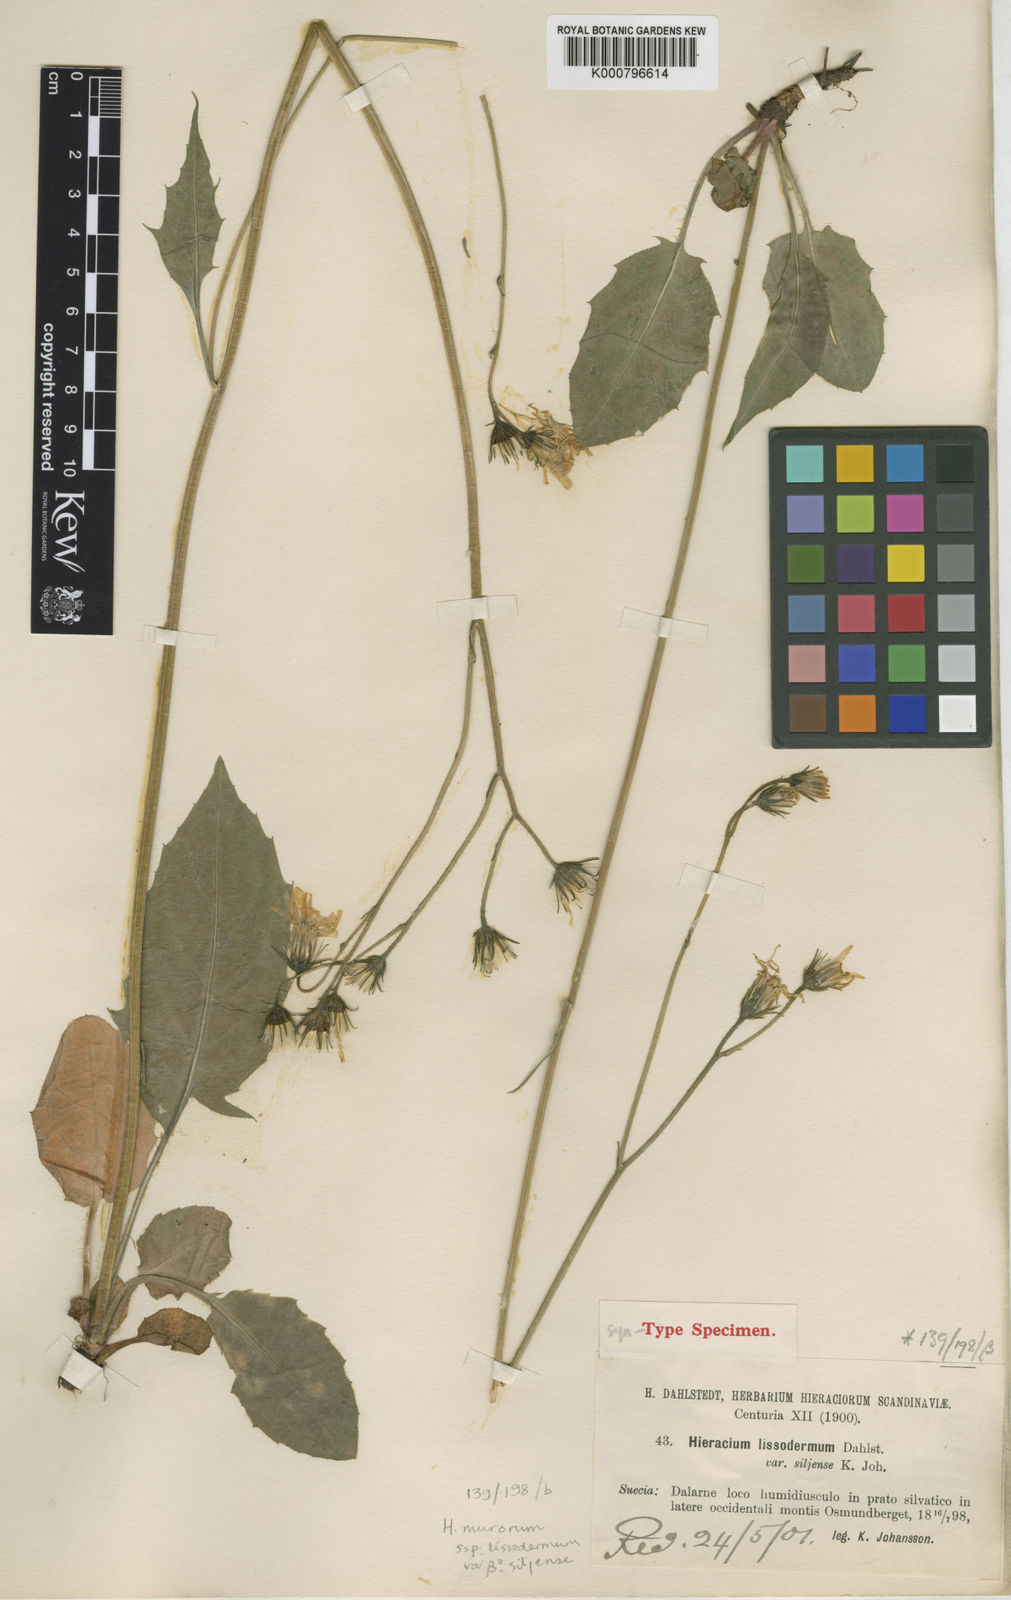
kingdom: Plantae
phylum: Tracheophyta
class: Magnoliopsida
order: Asterales
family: Asteraceae
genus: Hieracium
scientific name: Hieracium murorum
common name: Wall hawkweed
